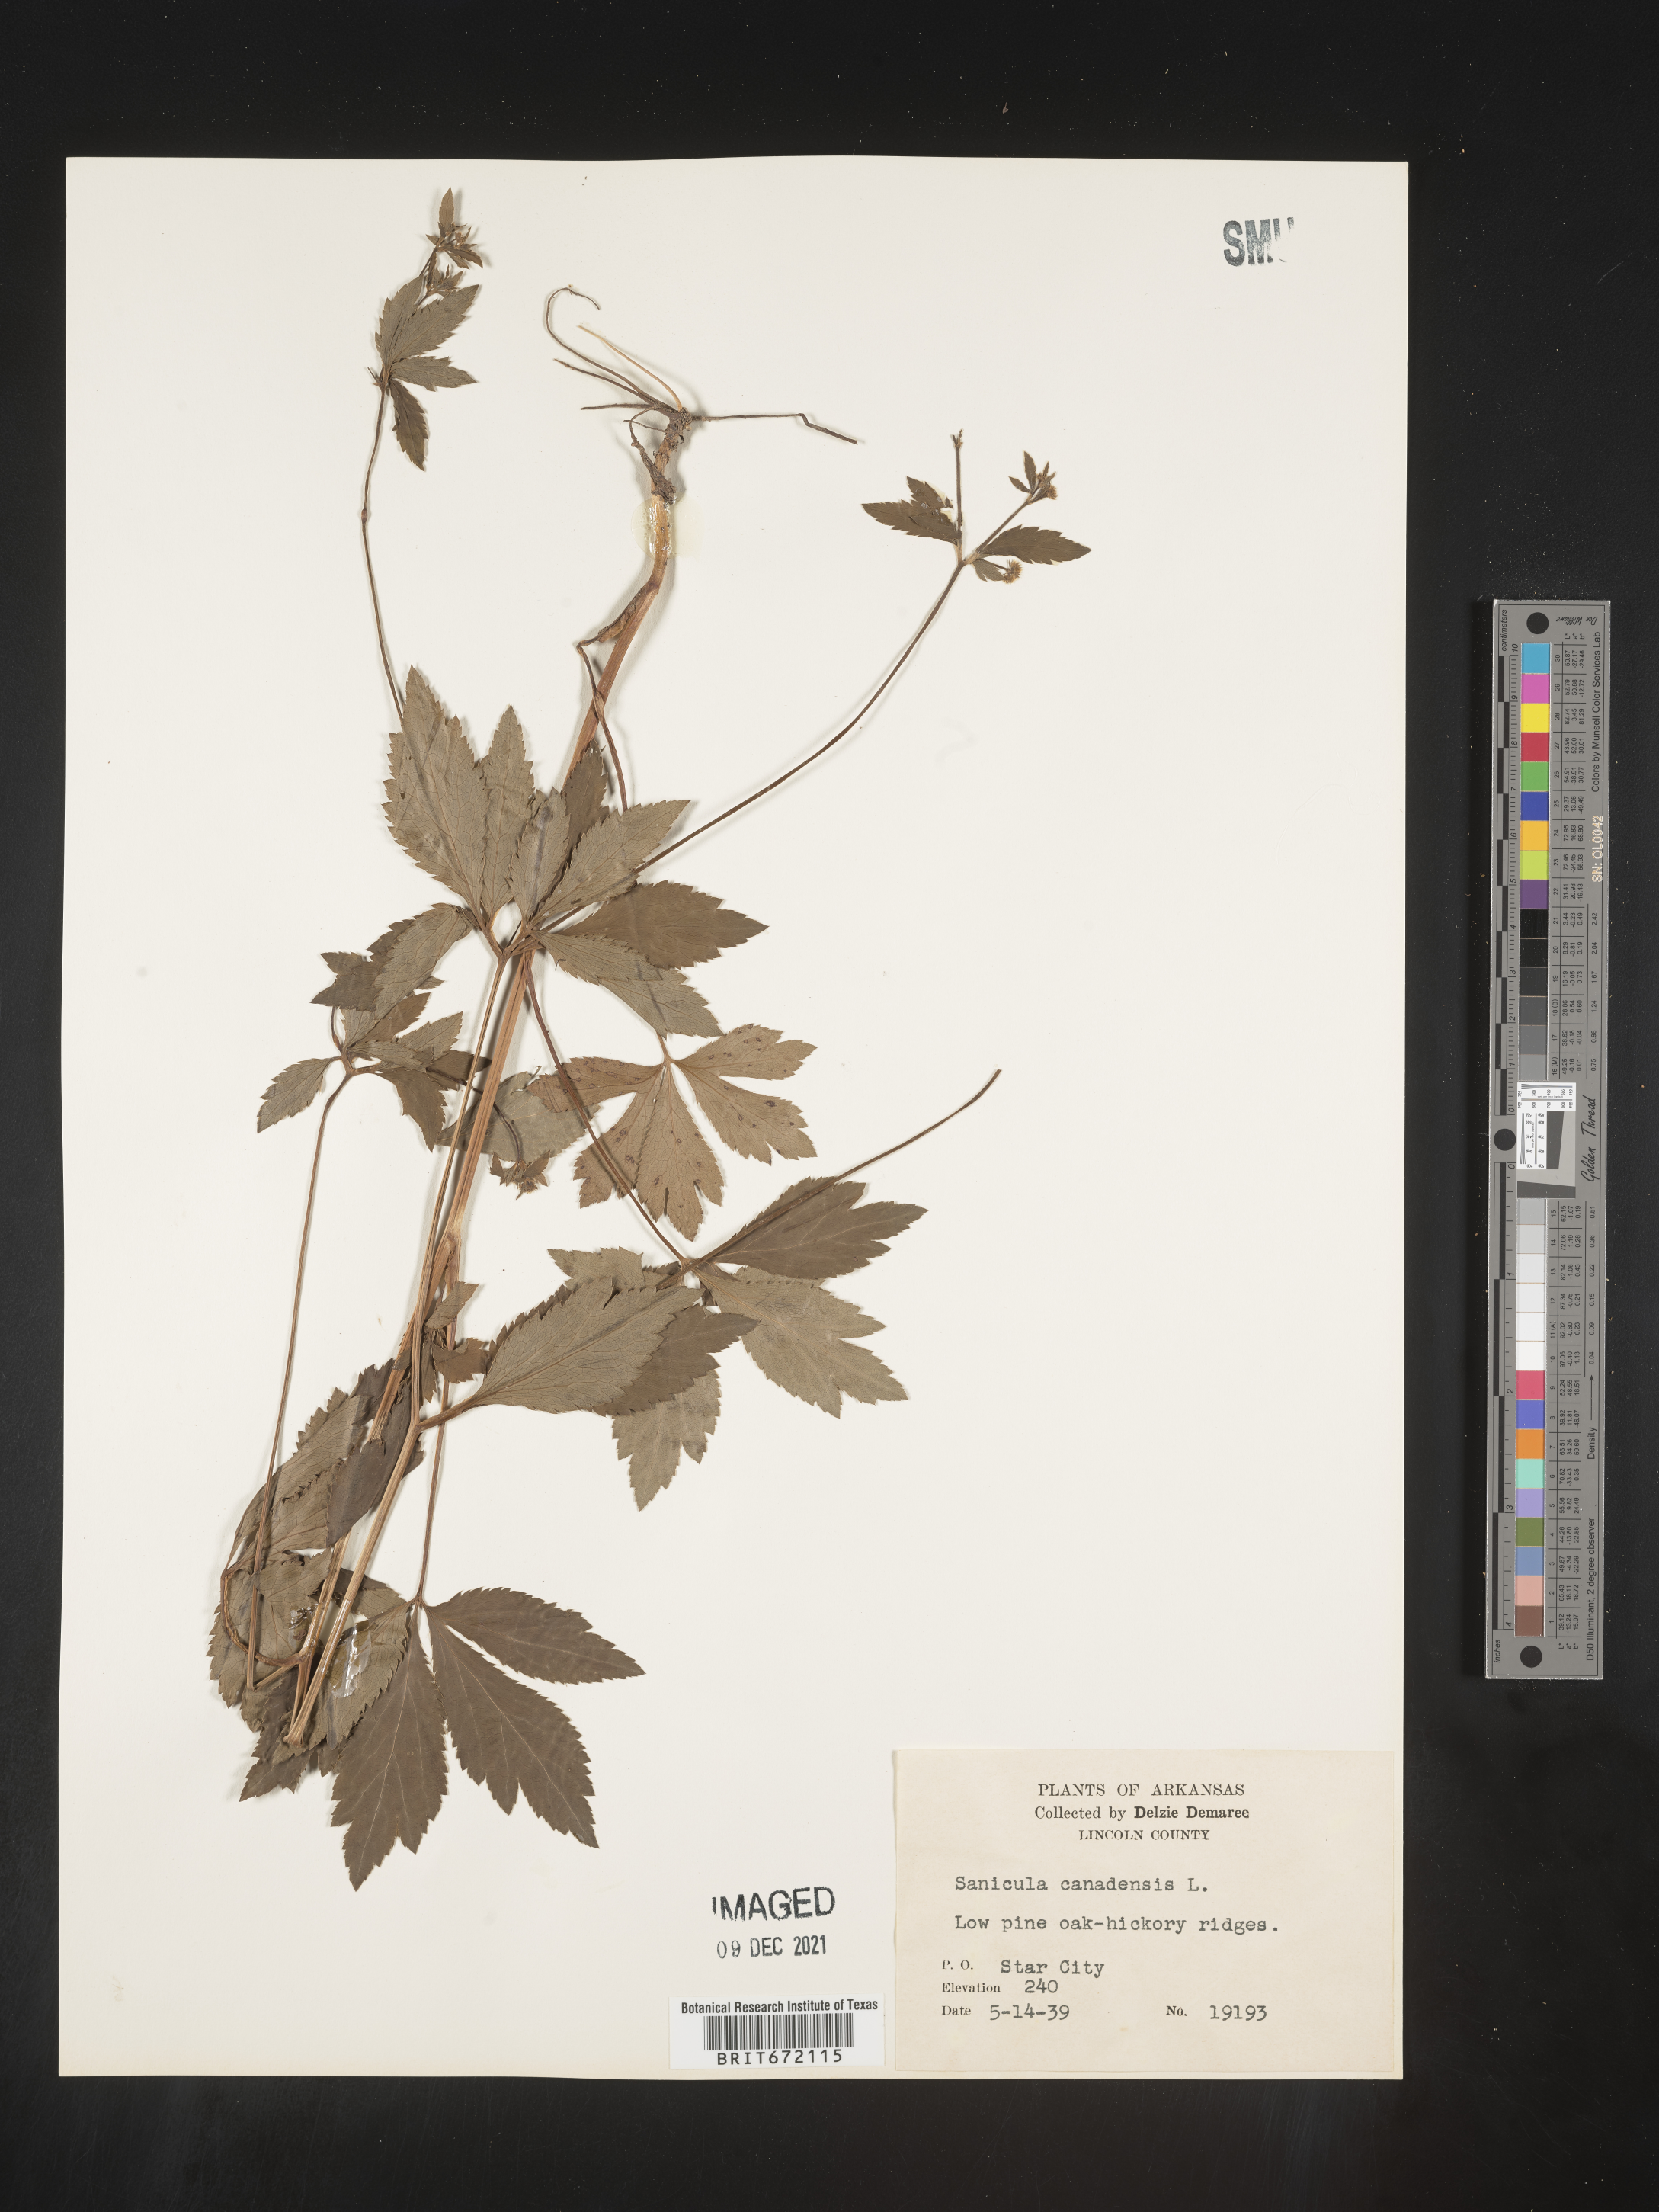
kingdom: Plantae
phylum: Tracheophyta
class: Magnoliopsida
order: Apiales
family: Apiaceae
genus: Sanicula
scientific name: Sanicula canadensis
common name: Canada sanicle
